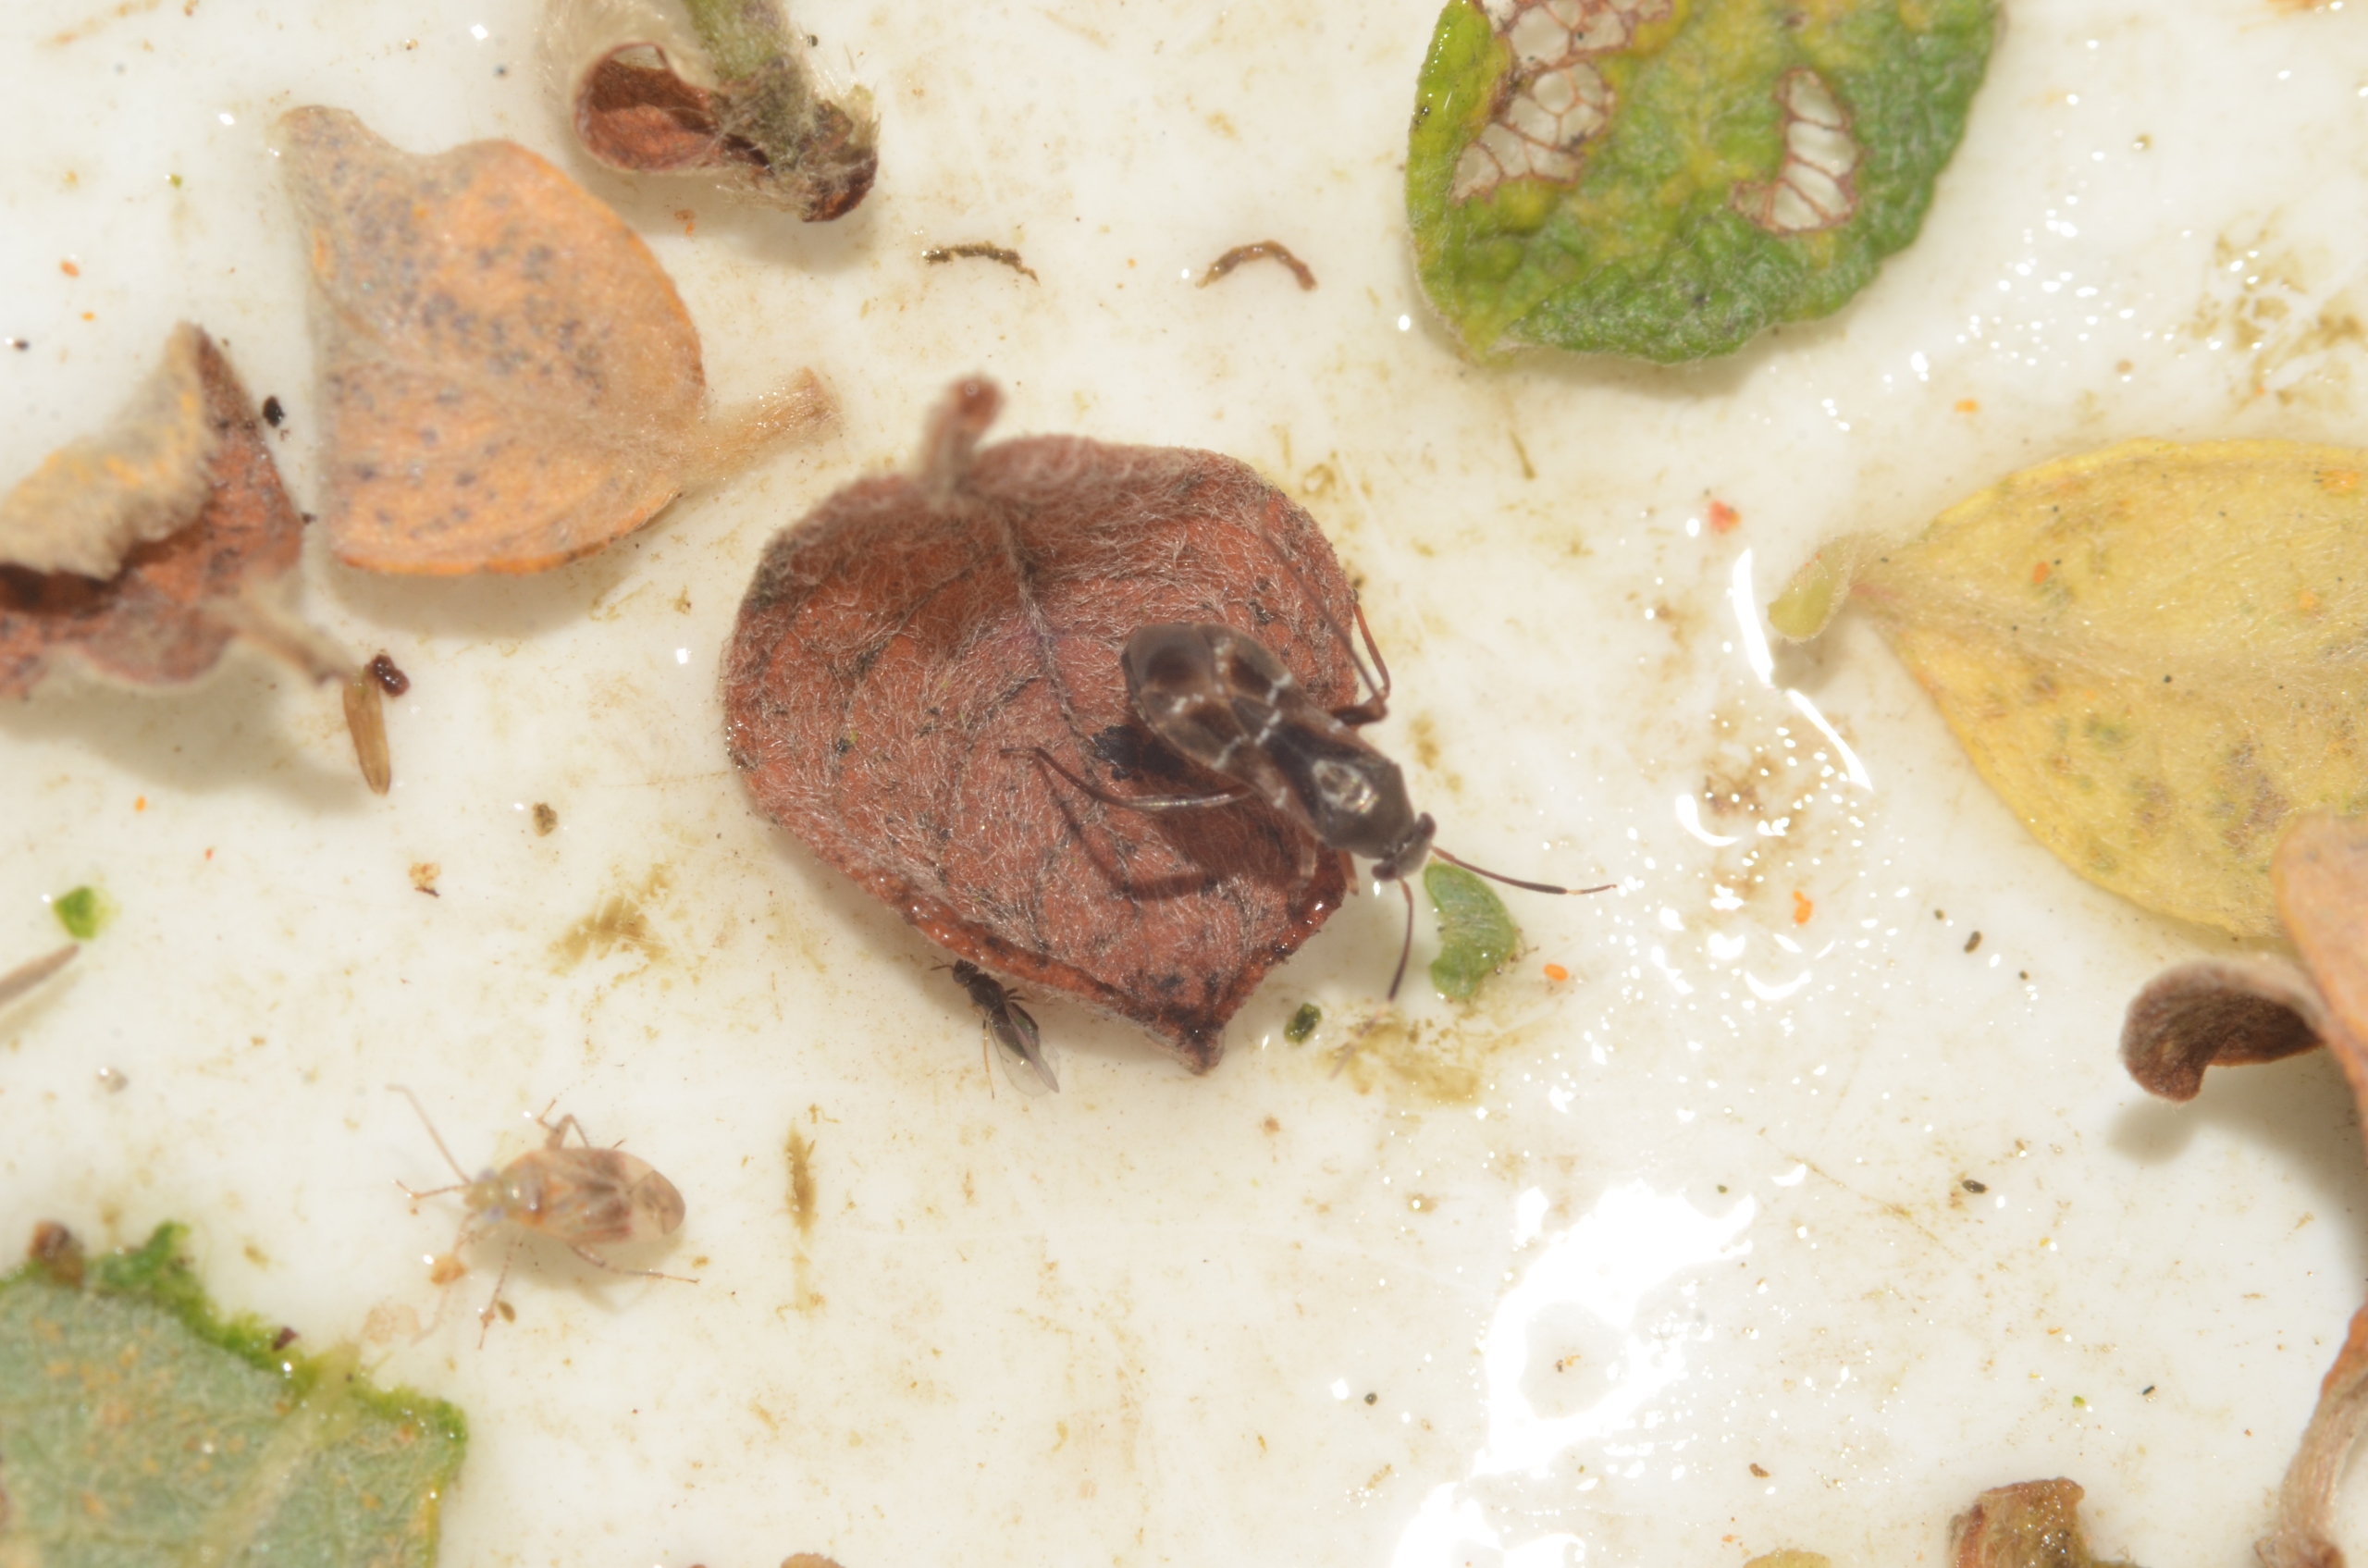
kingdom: Animalia
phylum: Arthropoda
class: Insecta
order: Hemiptera
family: Miridae
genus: Pilophorus
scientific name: Pilophorus clavatus
